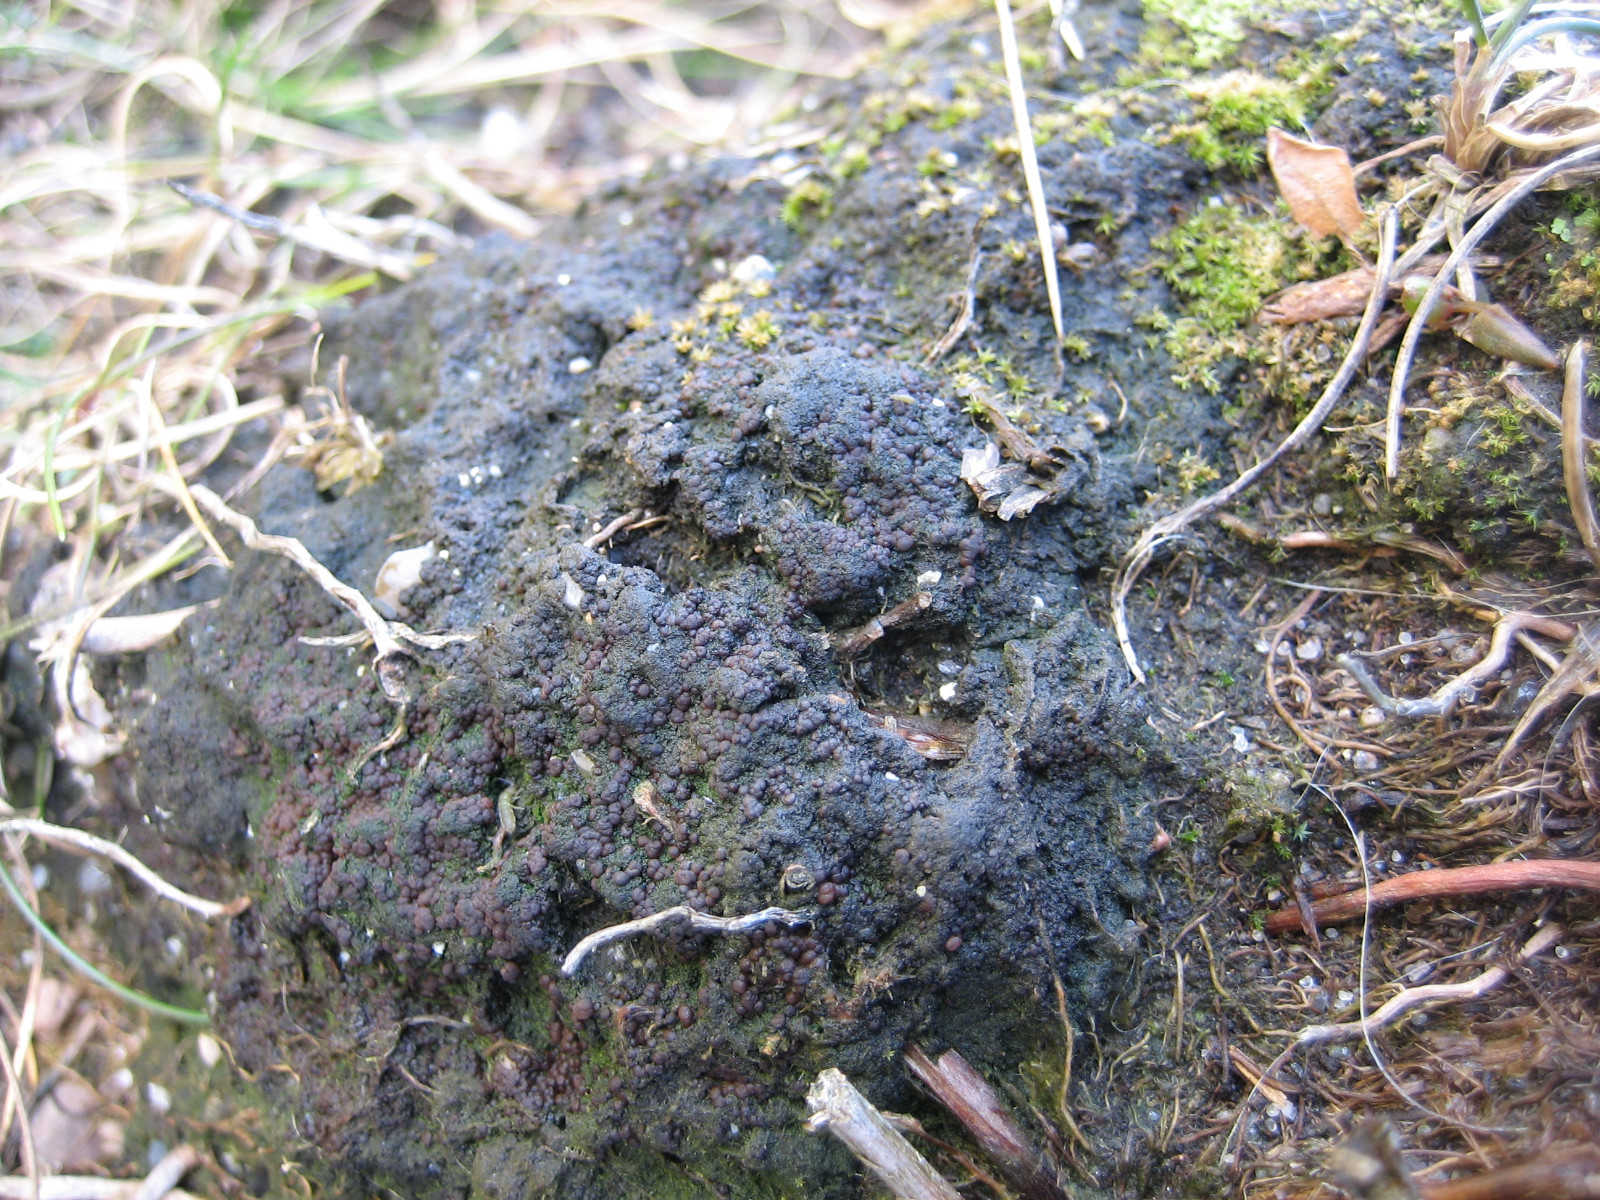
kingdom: Fungi
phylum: Ascomycota
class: Lecanoromycetes
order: Baeomycetales
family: Trapeliaceae
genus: Placynthiella
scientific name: Placynthiella uliginosa
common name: tørve-skivelav
